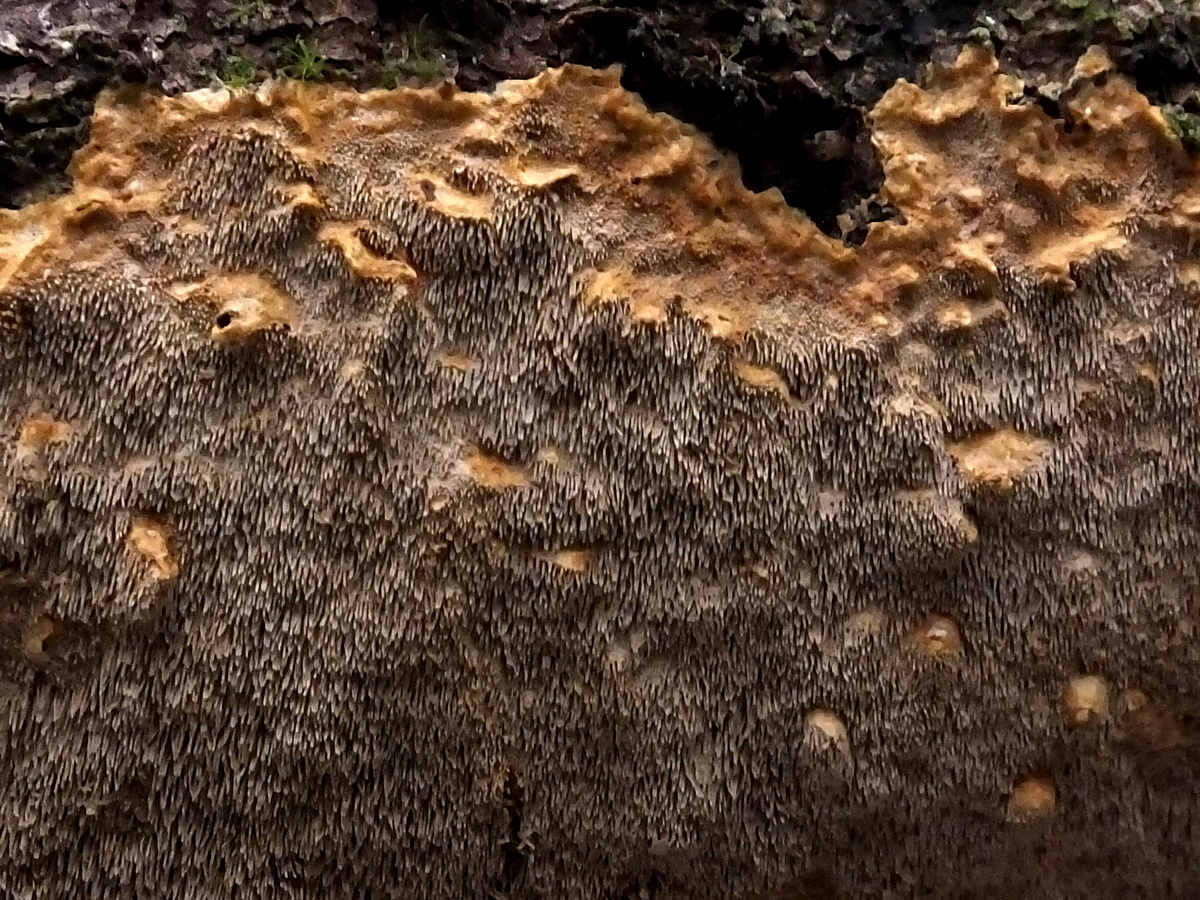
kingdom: Fungi
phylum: Basidiomycota
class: Agaricomycetes
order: Hymenochaetales
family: Hymenochaetaceae
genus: Asterodon
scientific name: Asterodon ferruginosus
